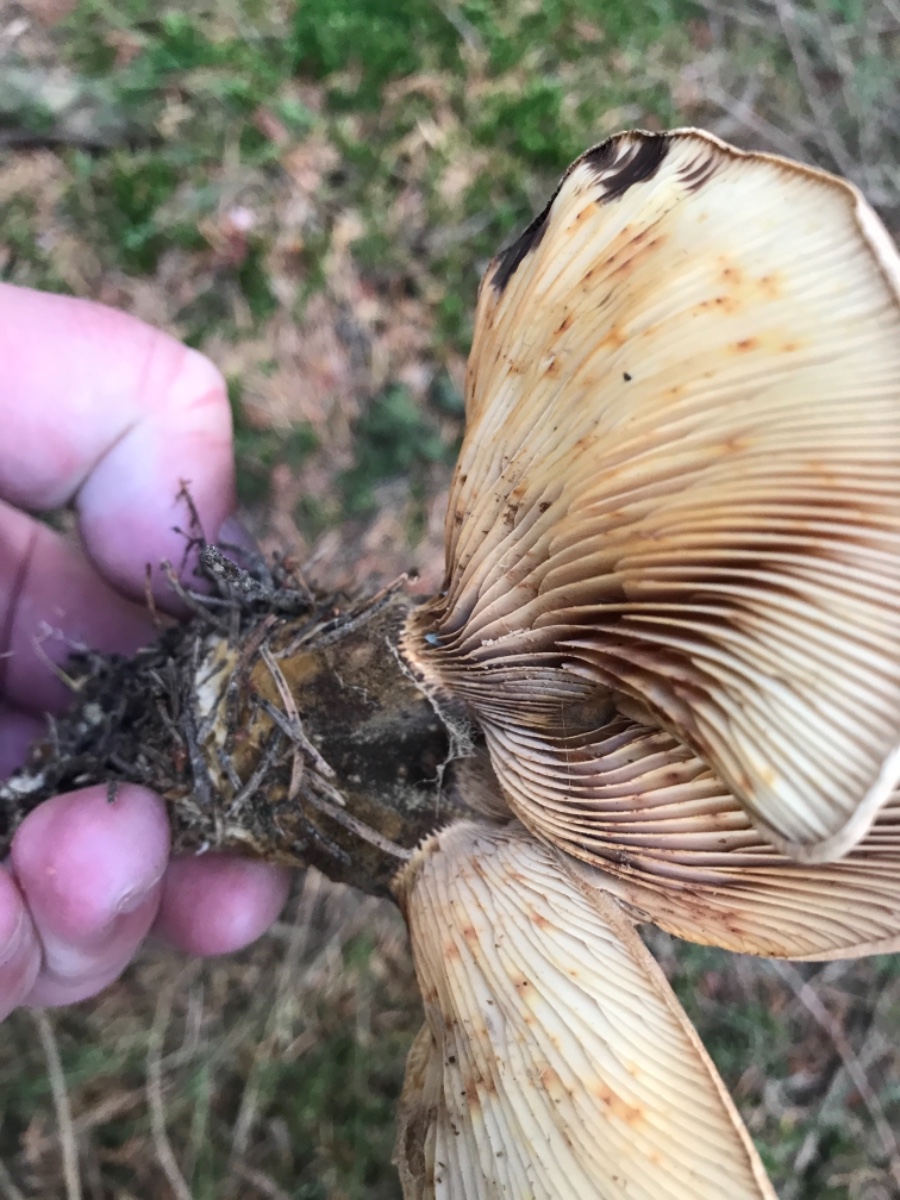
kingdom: Fungi
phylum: Basidiomycota
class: Agaricomycetes
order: Boletales
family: Tapinellaceae
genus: Tapinella
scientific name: Tapinella atrotomentosa
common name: sortfiltet viftesvamp
